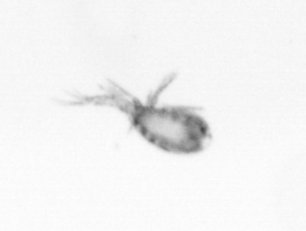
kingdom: Animalia
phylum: Arthropoda
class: Copepoda
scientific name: Copepoda
